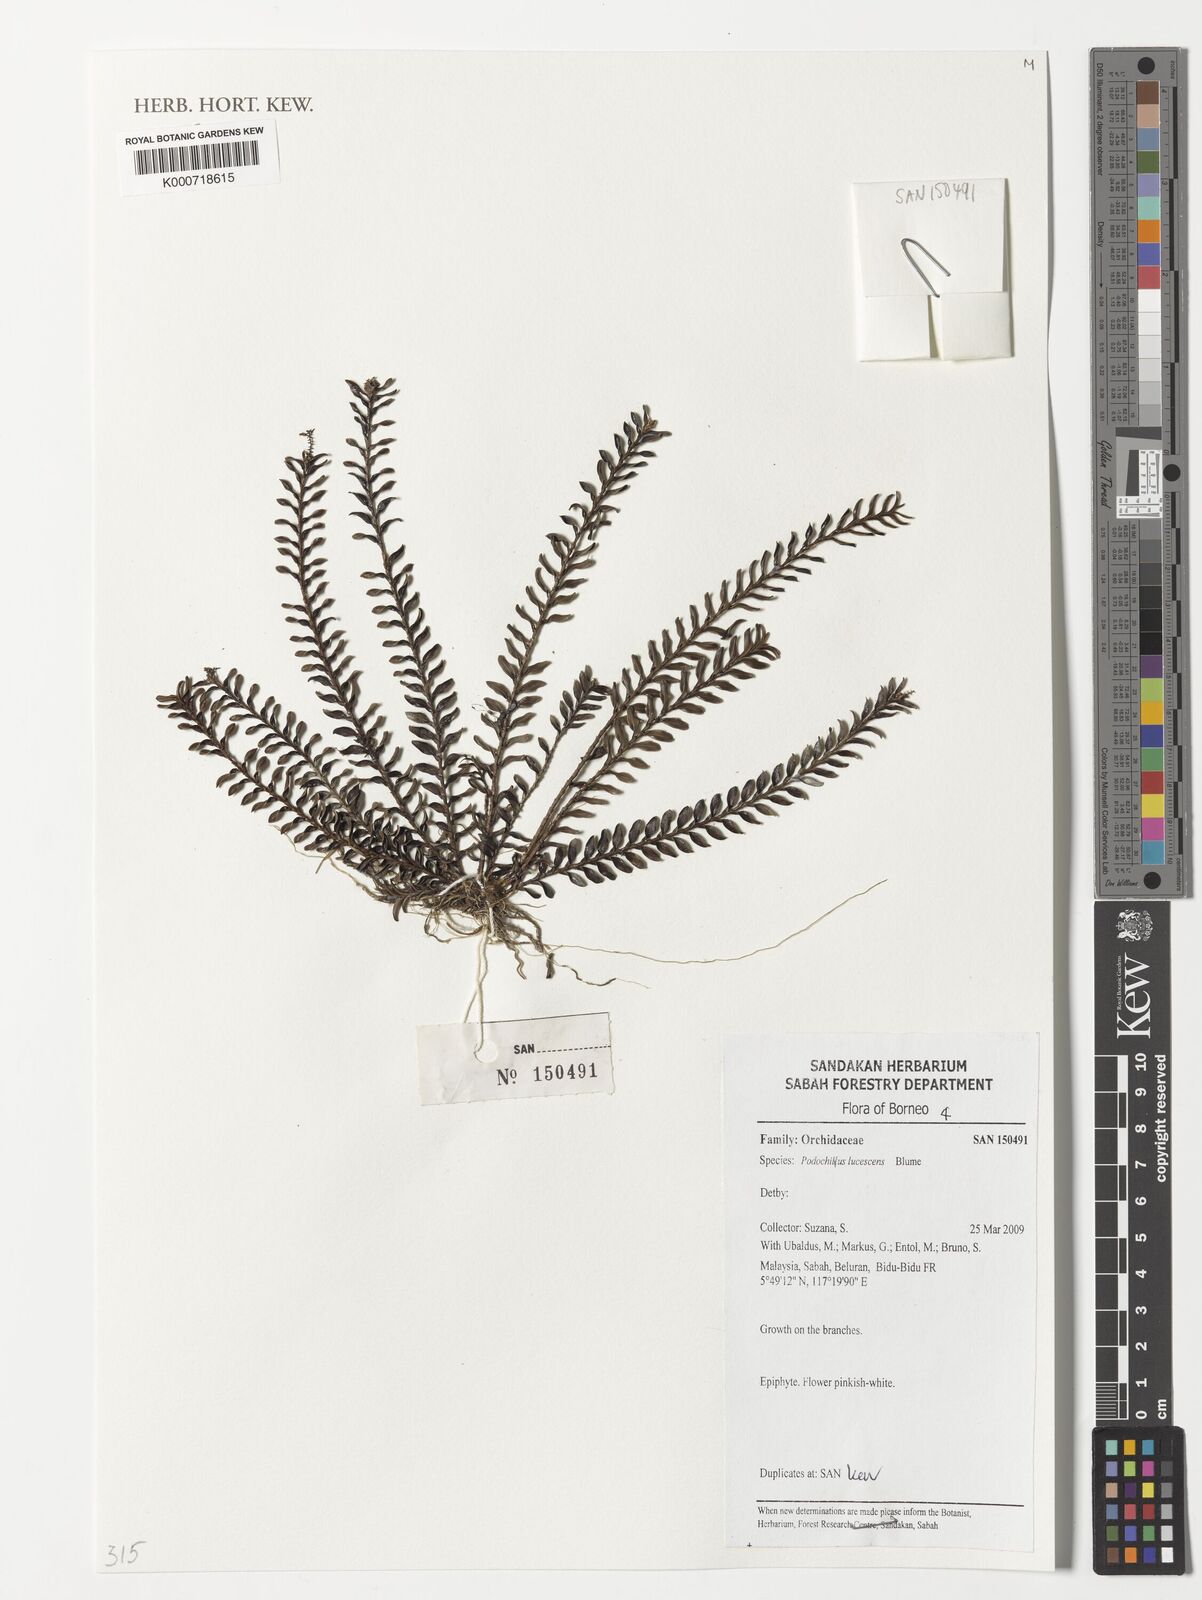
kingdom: Plantae
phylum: Tracheophyta
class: Liliopsida
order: Asparagales
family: Orchidaceae
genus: Podochilus
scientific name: Podochilus lucescens
